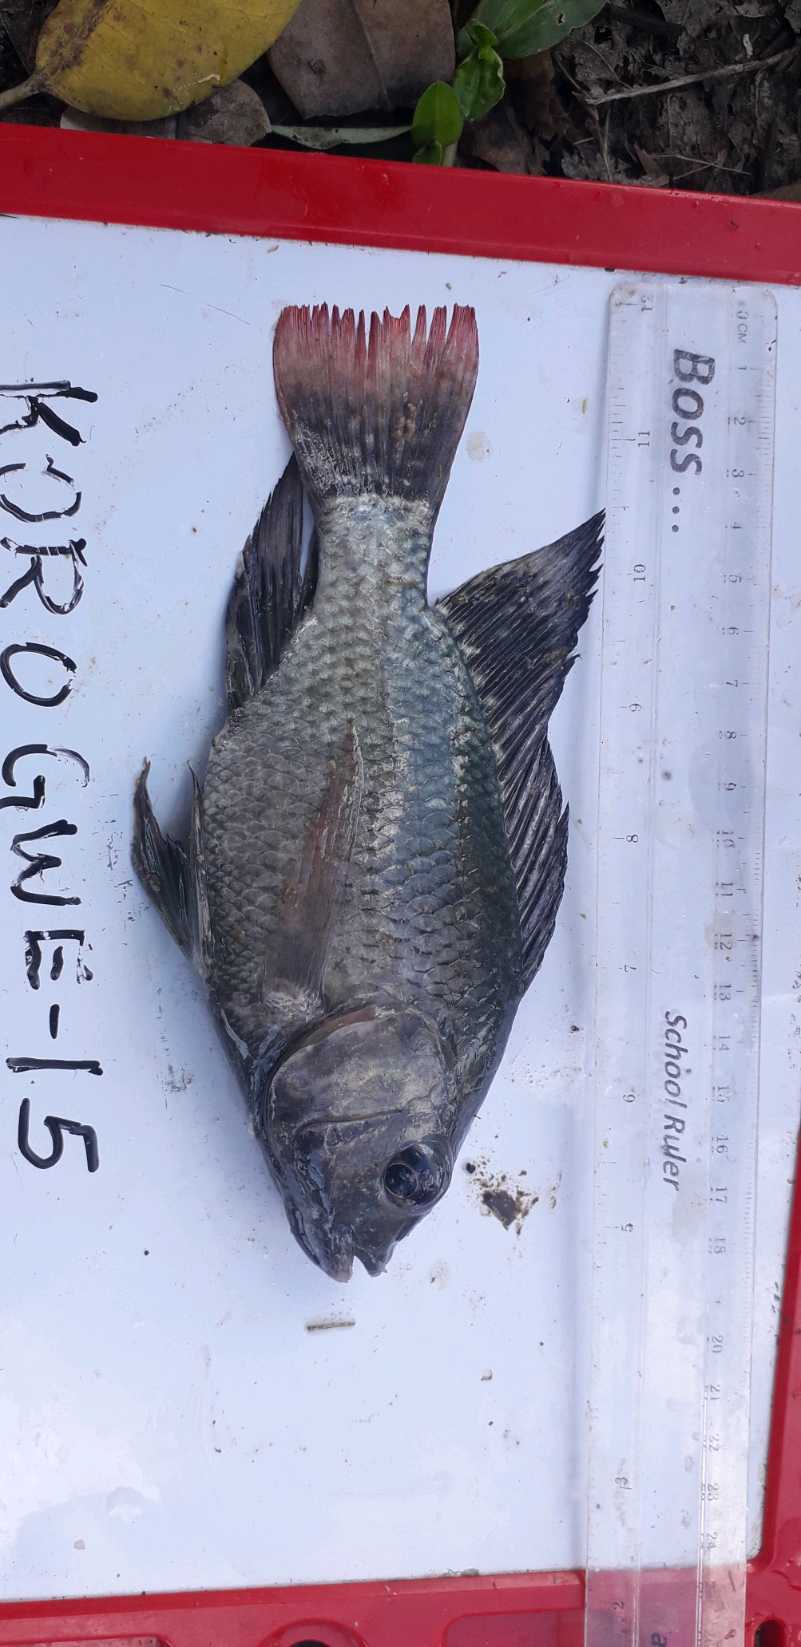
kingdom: Animalia
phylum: Chordata
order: Perciformes
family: Cichlidae
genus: Oreochromis
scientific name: Oreochromis niloticus
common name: Nile tilapia
